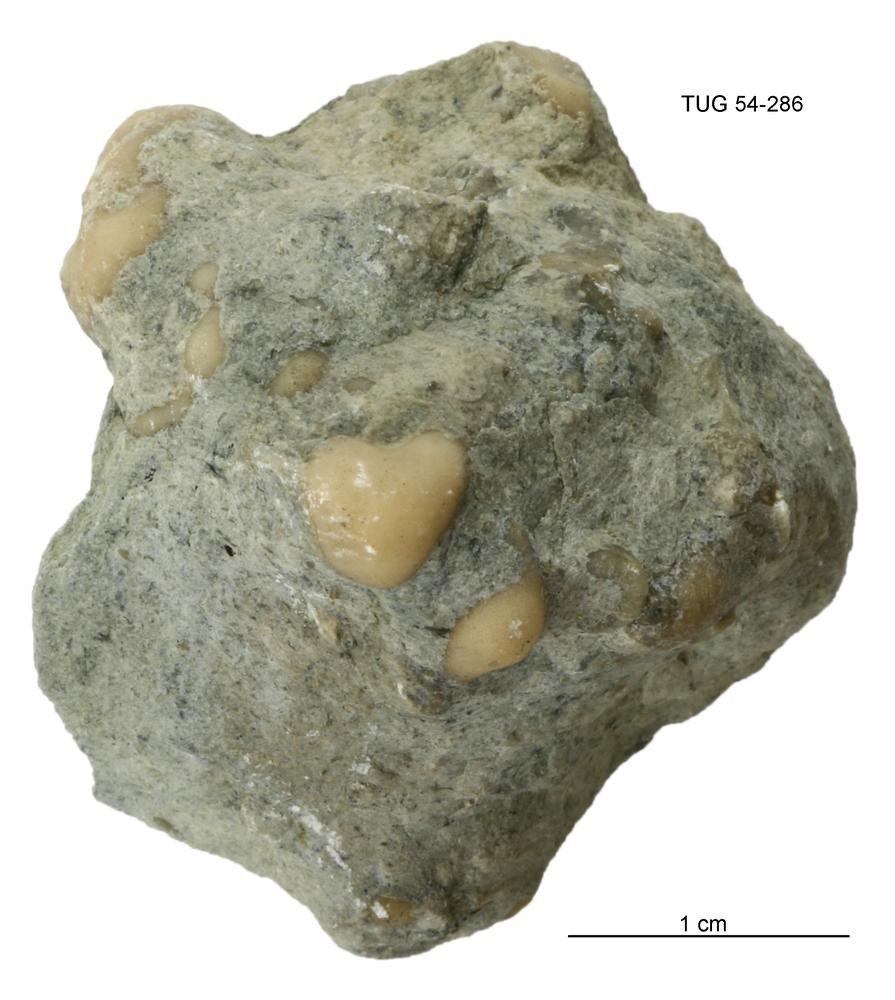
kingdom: Animalia
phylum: Porifera
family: Chaetetidae
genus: Solenopora
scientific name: Solenopora
